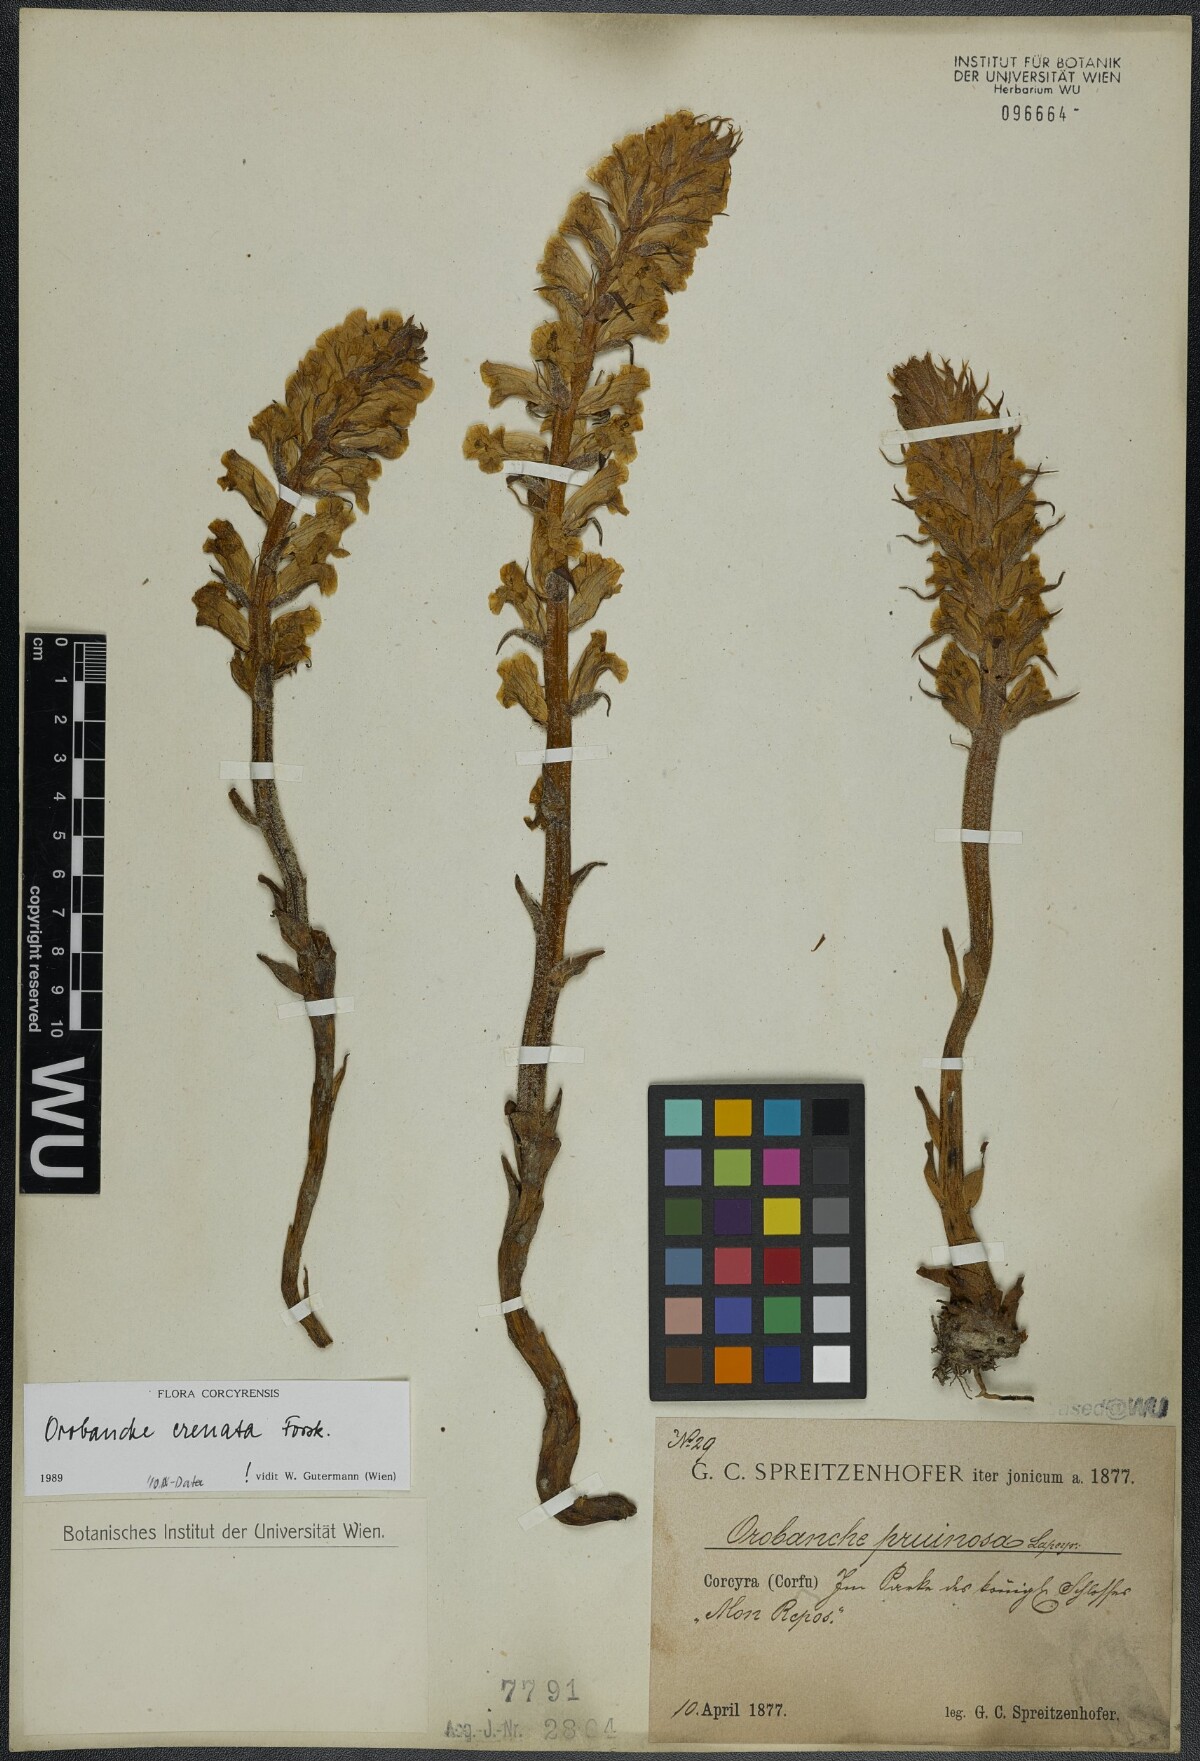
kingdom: Plantae
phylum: Tracheophyta
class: Magnoliopsida
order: Lamiales
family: Orobanchaceae
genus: Orobanche
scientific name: Orobanche crenata
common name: Bean broomrape
